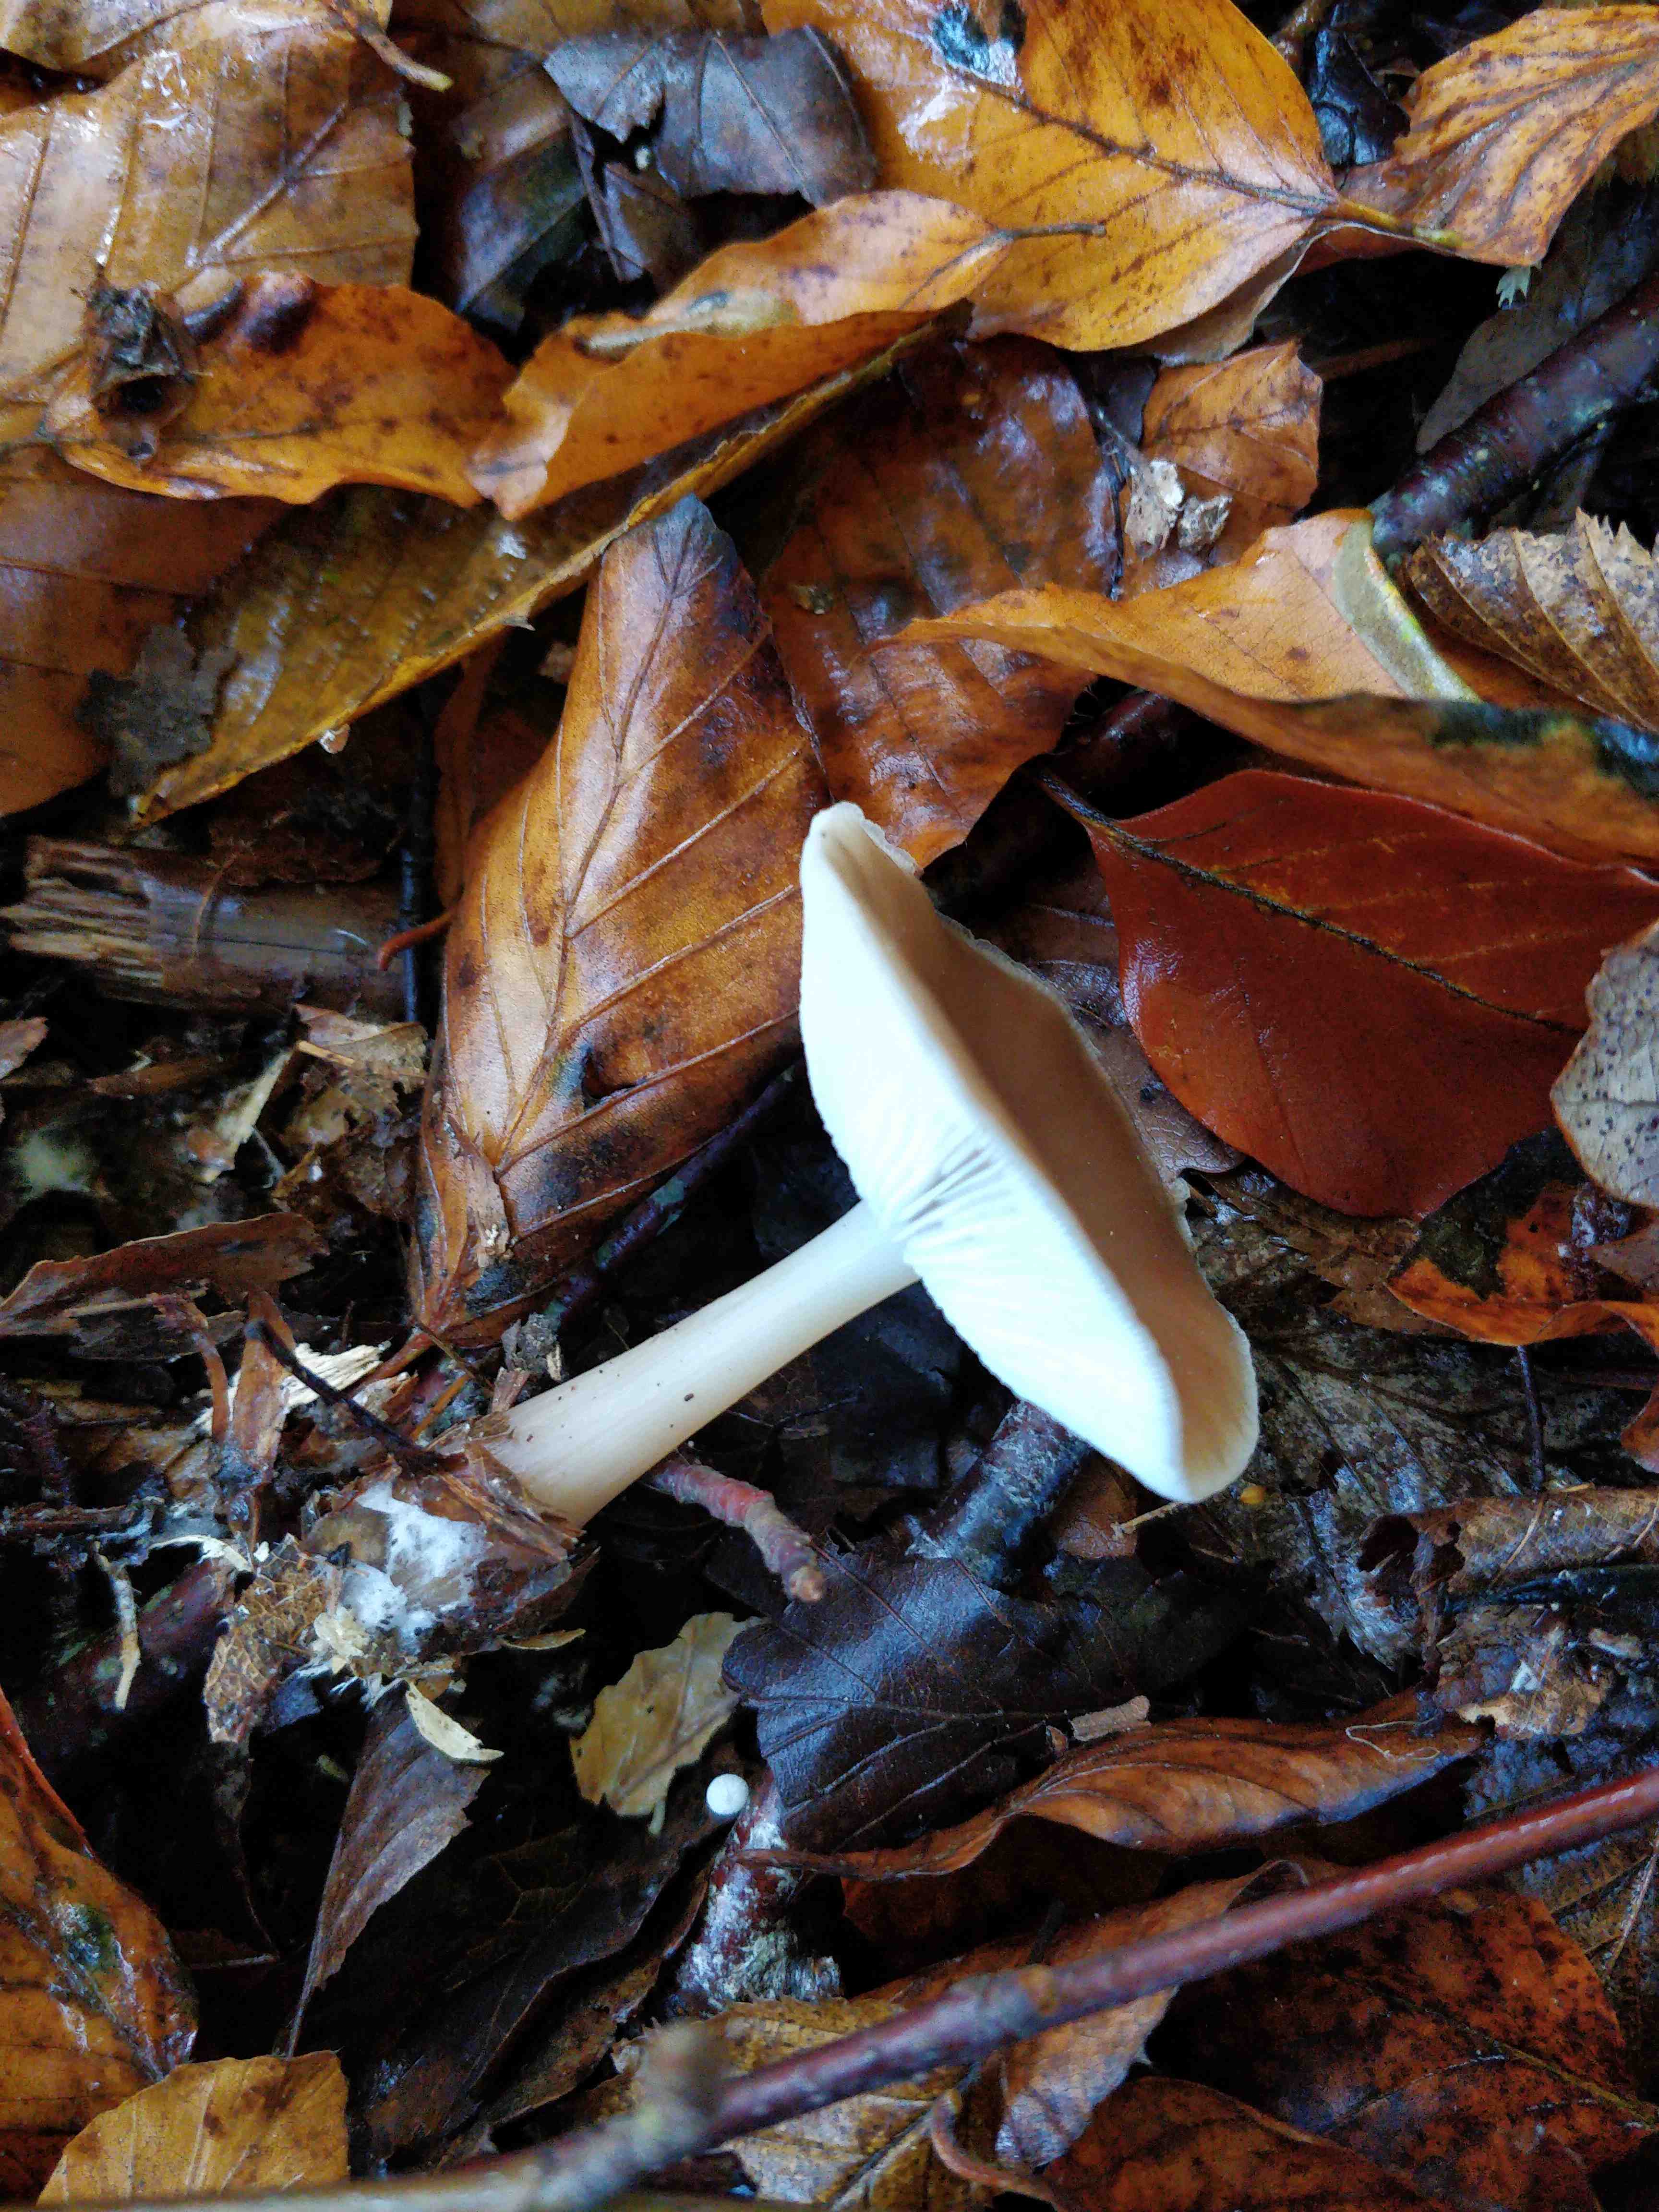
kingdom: Fungi
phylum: Basidiomycota
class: Agaricomycetes
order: Agaricales
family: Omphalotaceae
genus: Rhodocollybia
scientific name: Rhodocollybia asema
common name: horngrå fladhat
